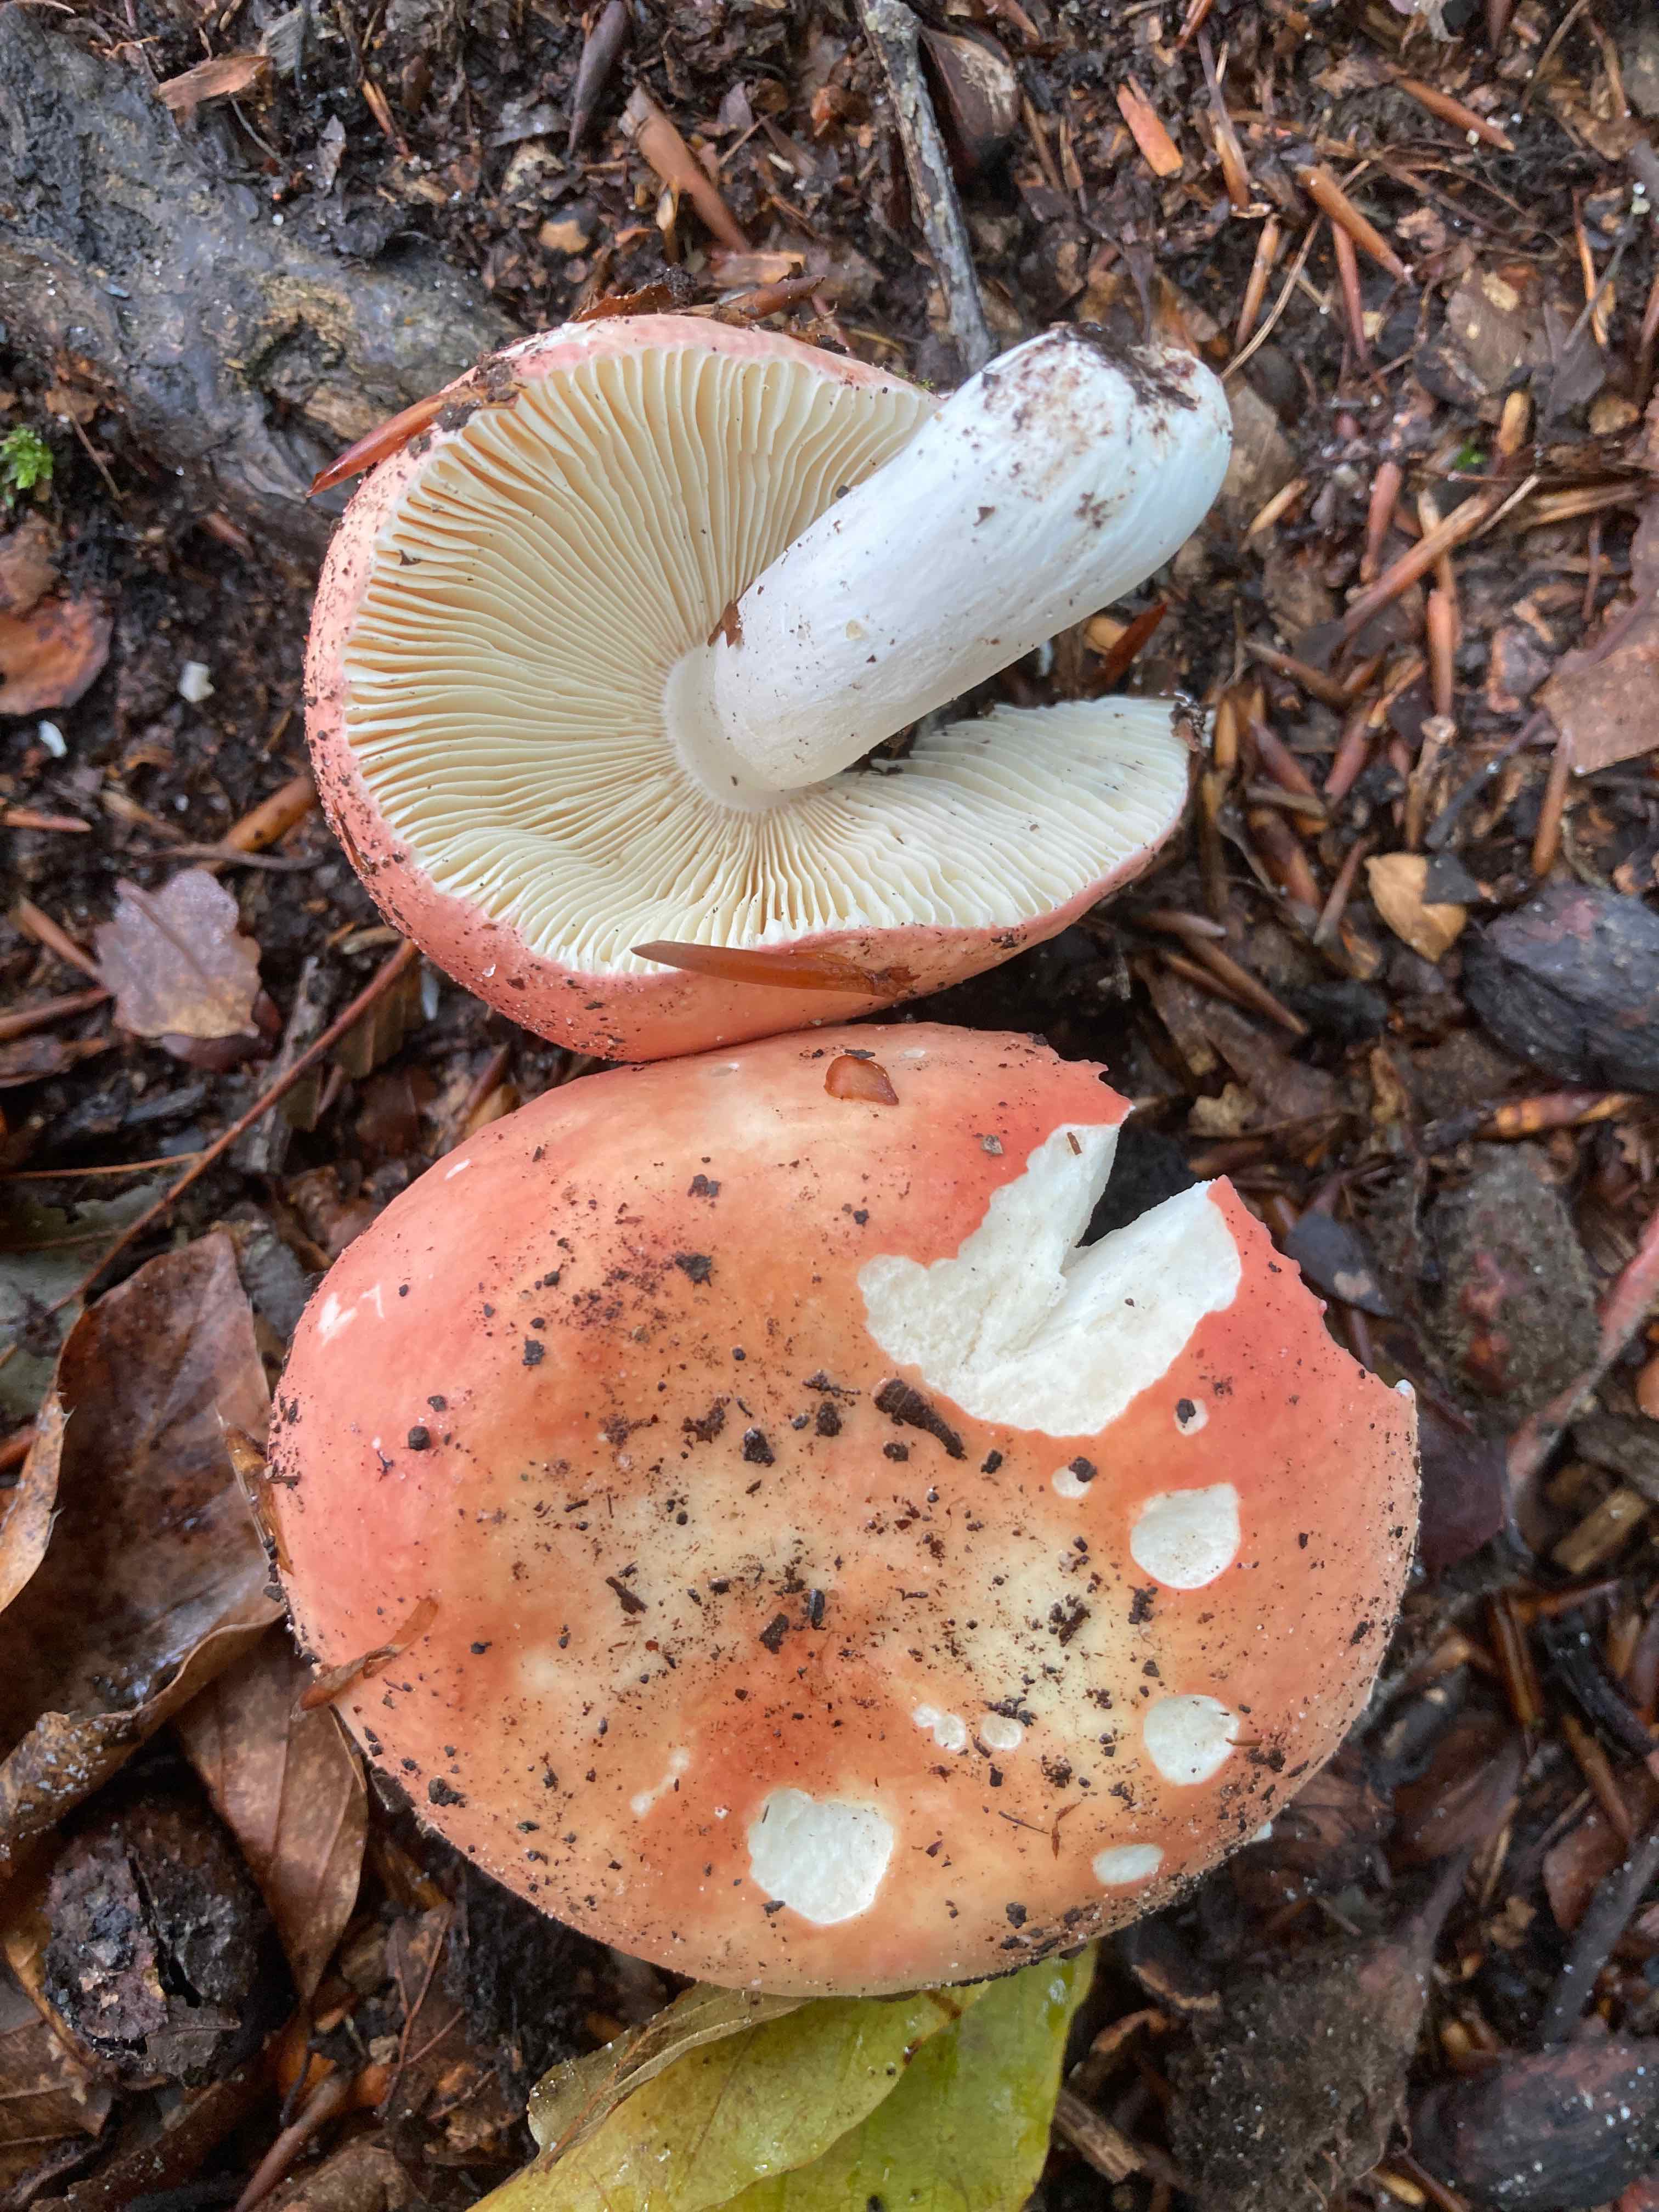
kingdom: Fungi
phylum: Basidiomycota
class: Agaricomycetes
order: Russulales
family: Russulaceae
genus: Russula
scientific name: Russula aurora
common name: rosa skørhat
